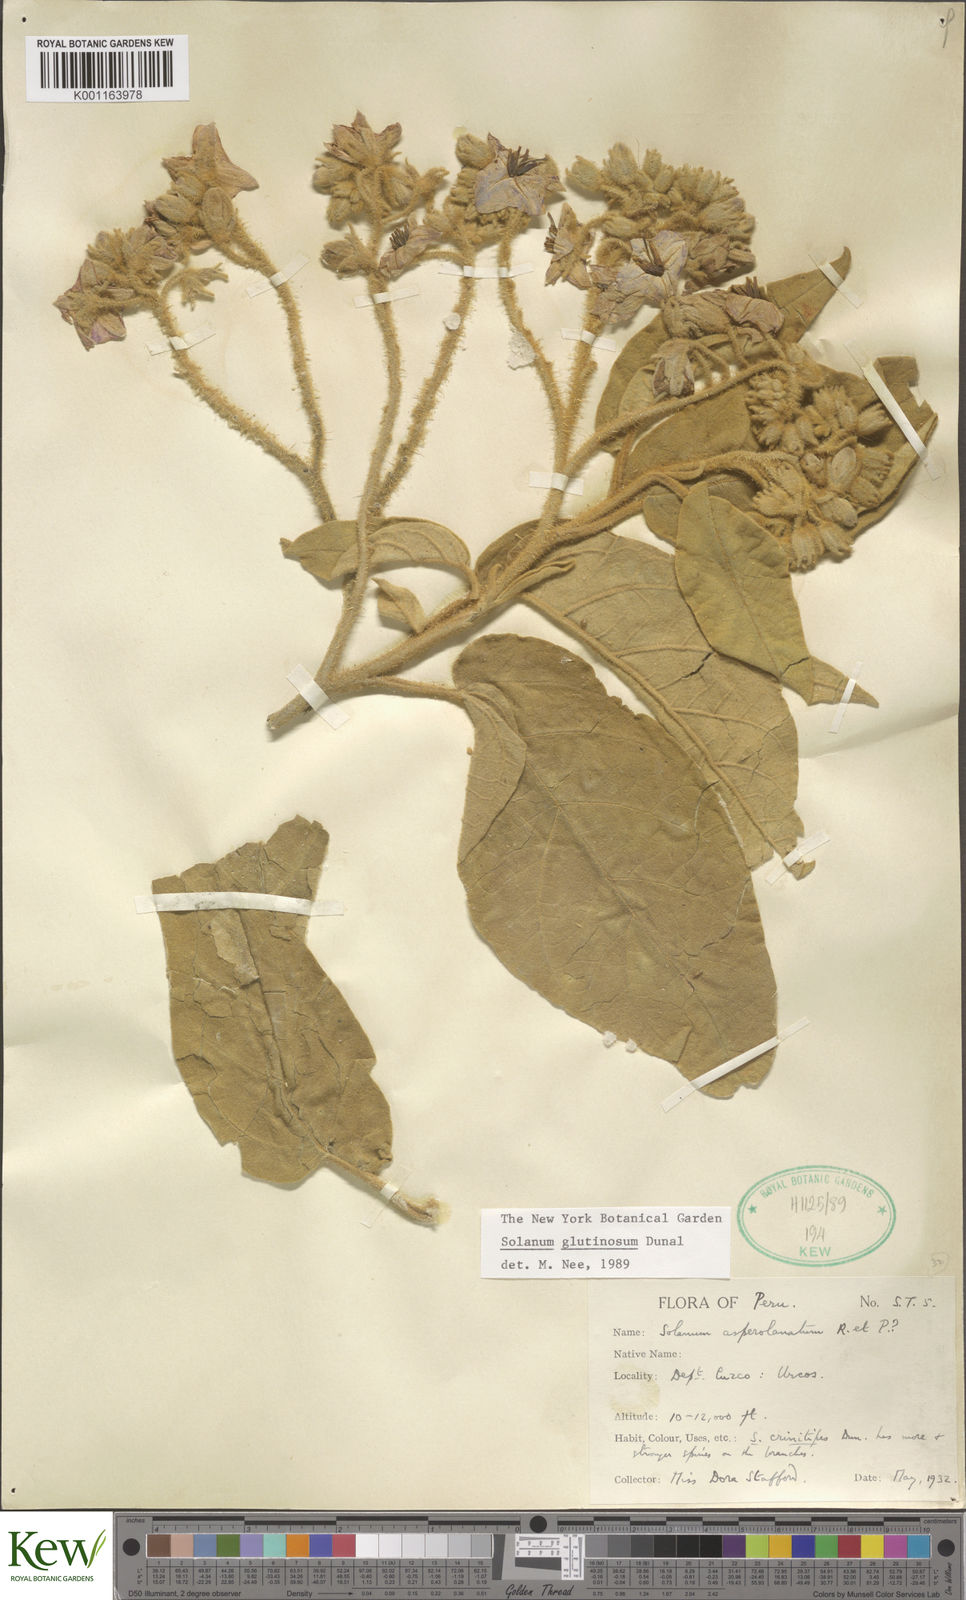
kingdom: Plantae
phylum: Tracheophyta
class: Magnoliopsida
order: Solanales
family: Solanaceae
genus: Solanum
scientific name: Solanum glutinosum
